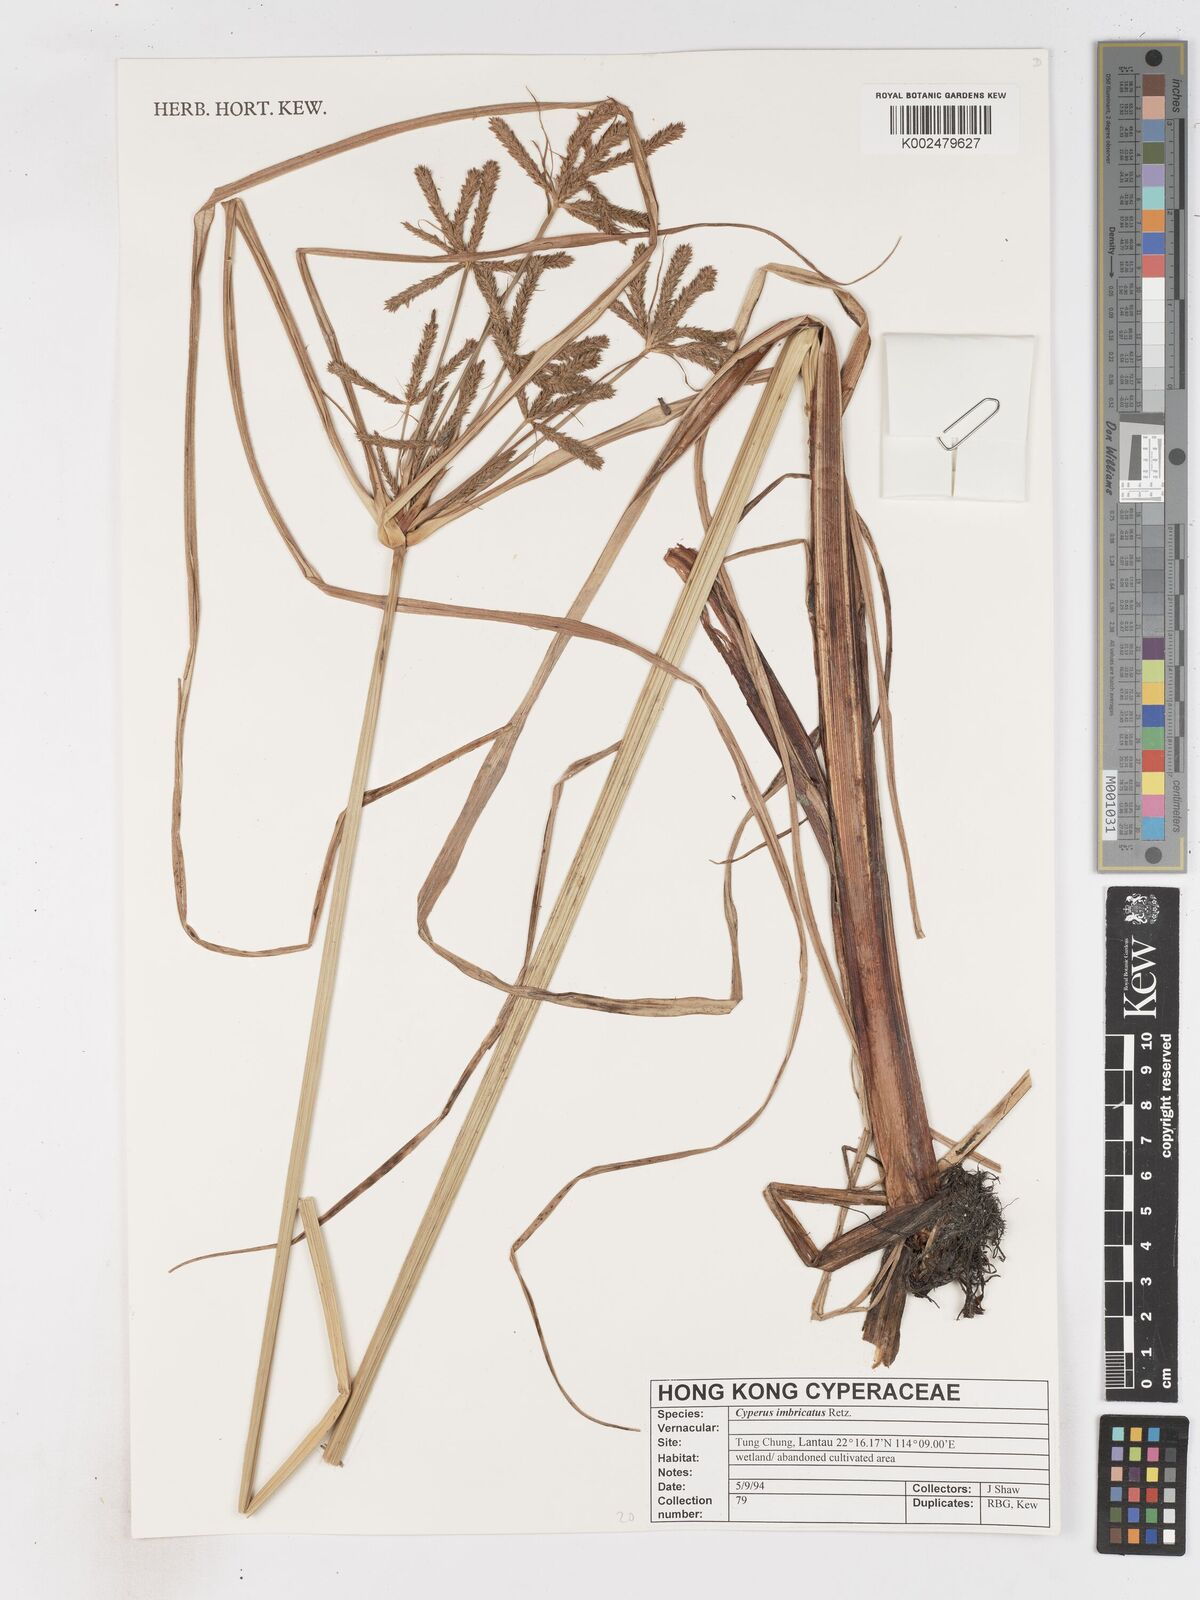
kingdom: Plantae
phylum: Tracheophyta
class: Liliopsida
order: Poales
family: Cyperaceae
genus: Cyperus
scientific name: Cyperus imbricatus
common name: Shingle flatsedge
